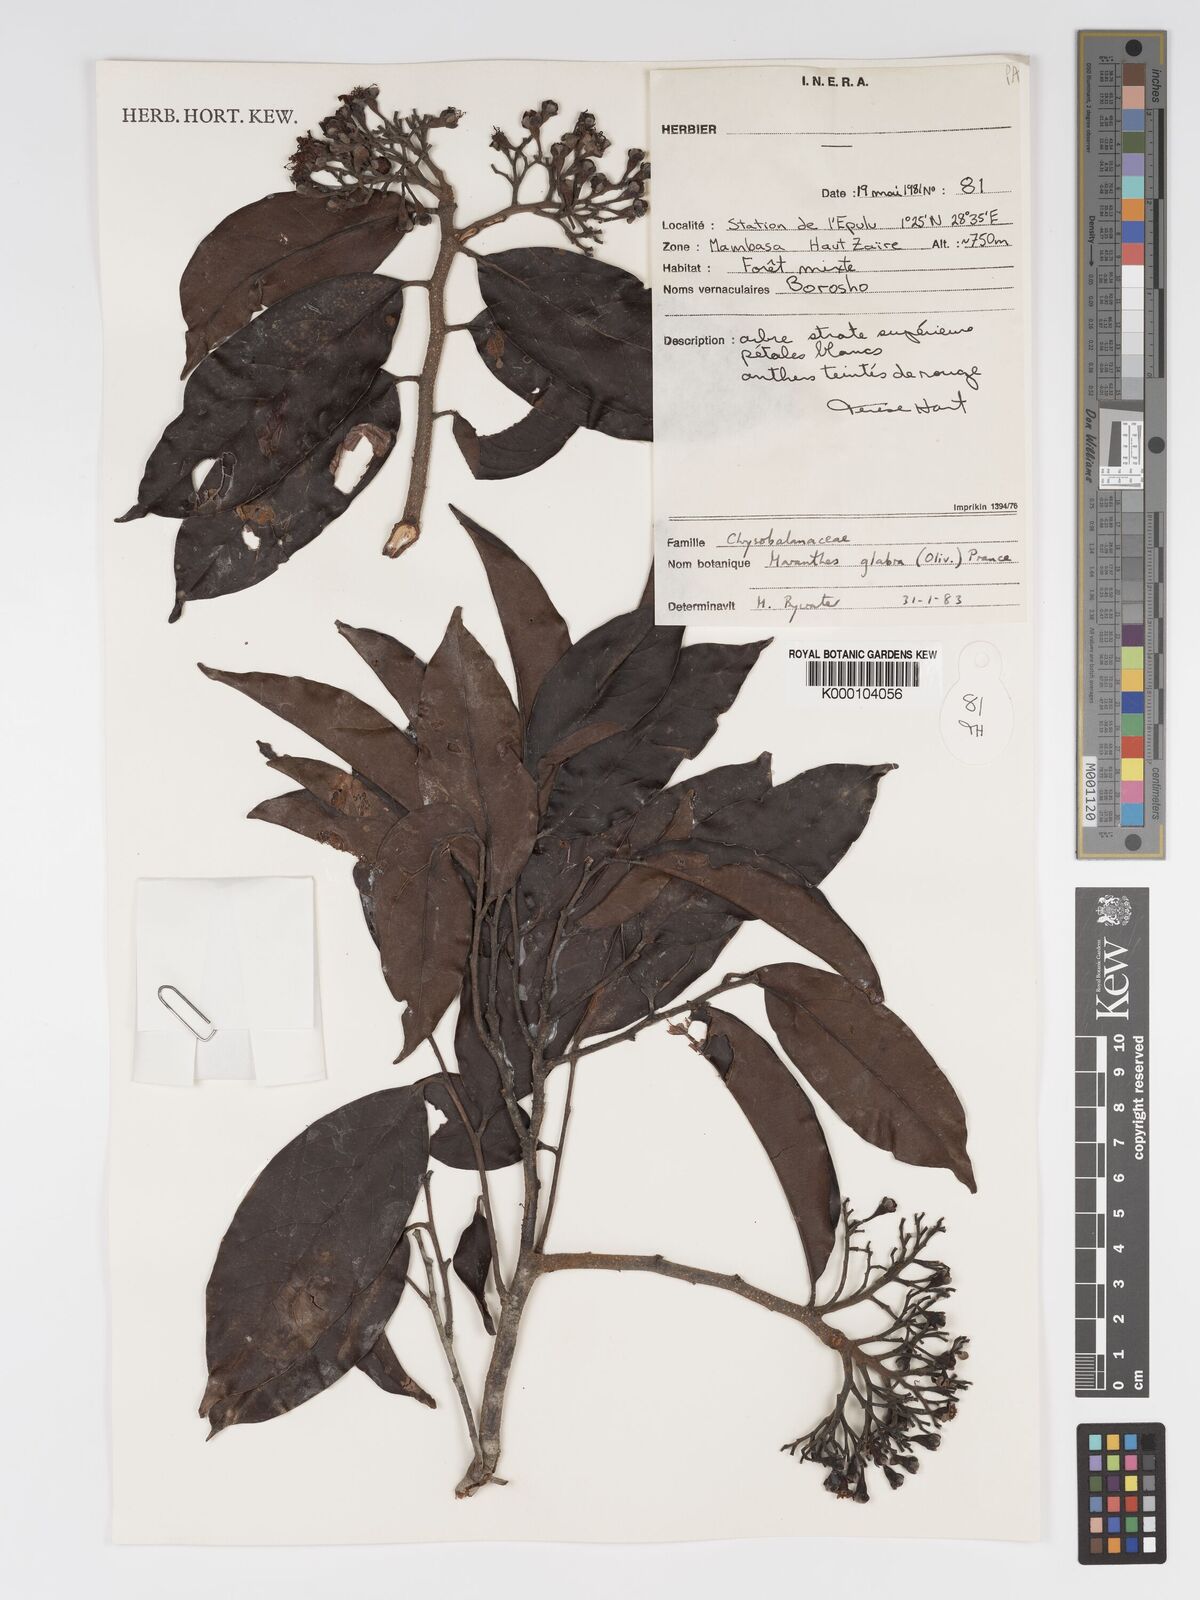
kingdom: Plantae
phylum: Tracheophyta
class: Magnoliopsida
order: Malpighiales
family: Chrysobalanaceae
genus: Maranthes
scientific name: Maranthes glabra
